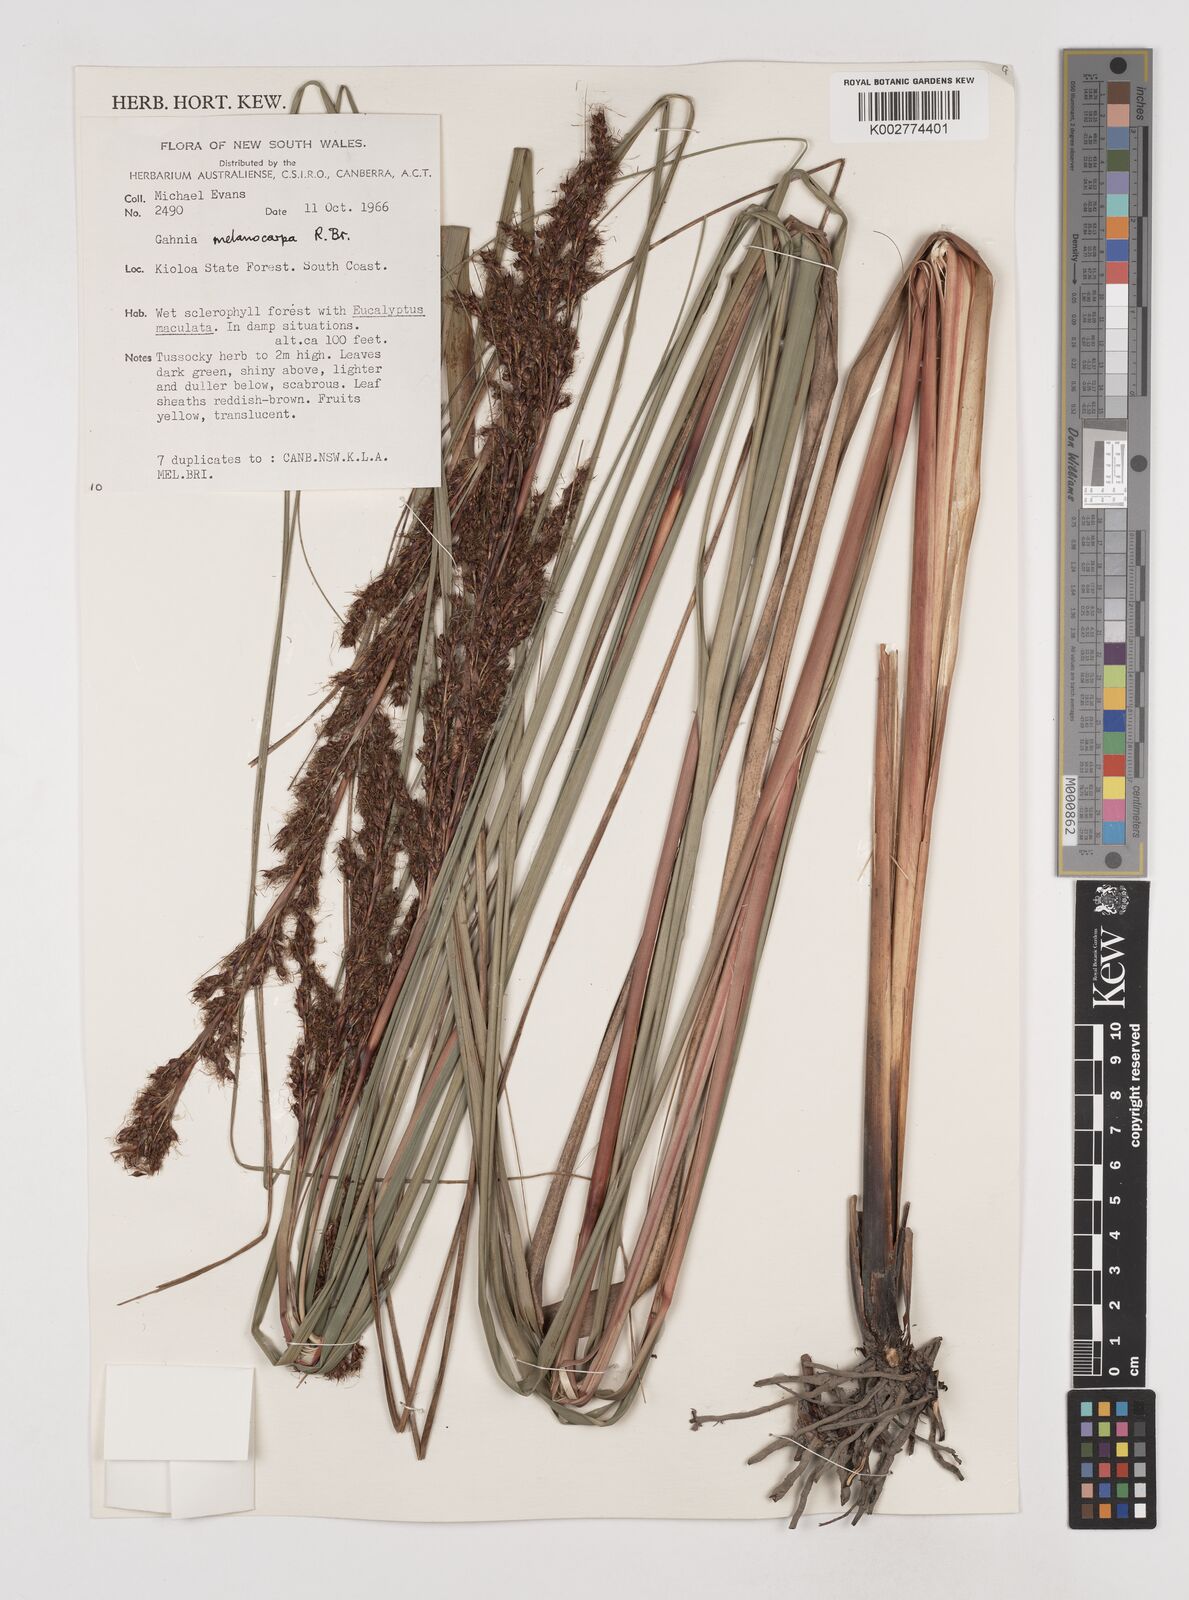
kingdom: Plantae
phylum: Tracheophyta
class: Liliopsida
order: Poales
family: Cyperaceae
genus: Gahnia
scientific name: Gahnia melanocarpa
